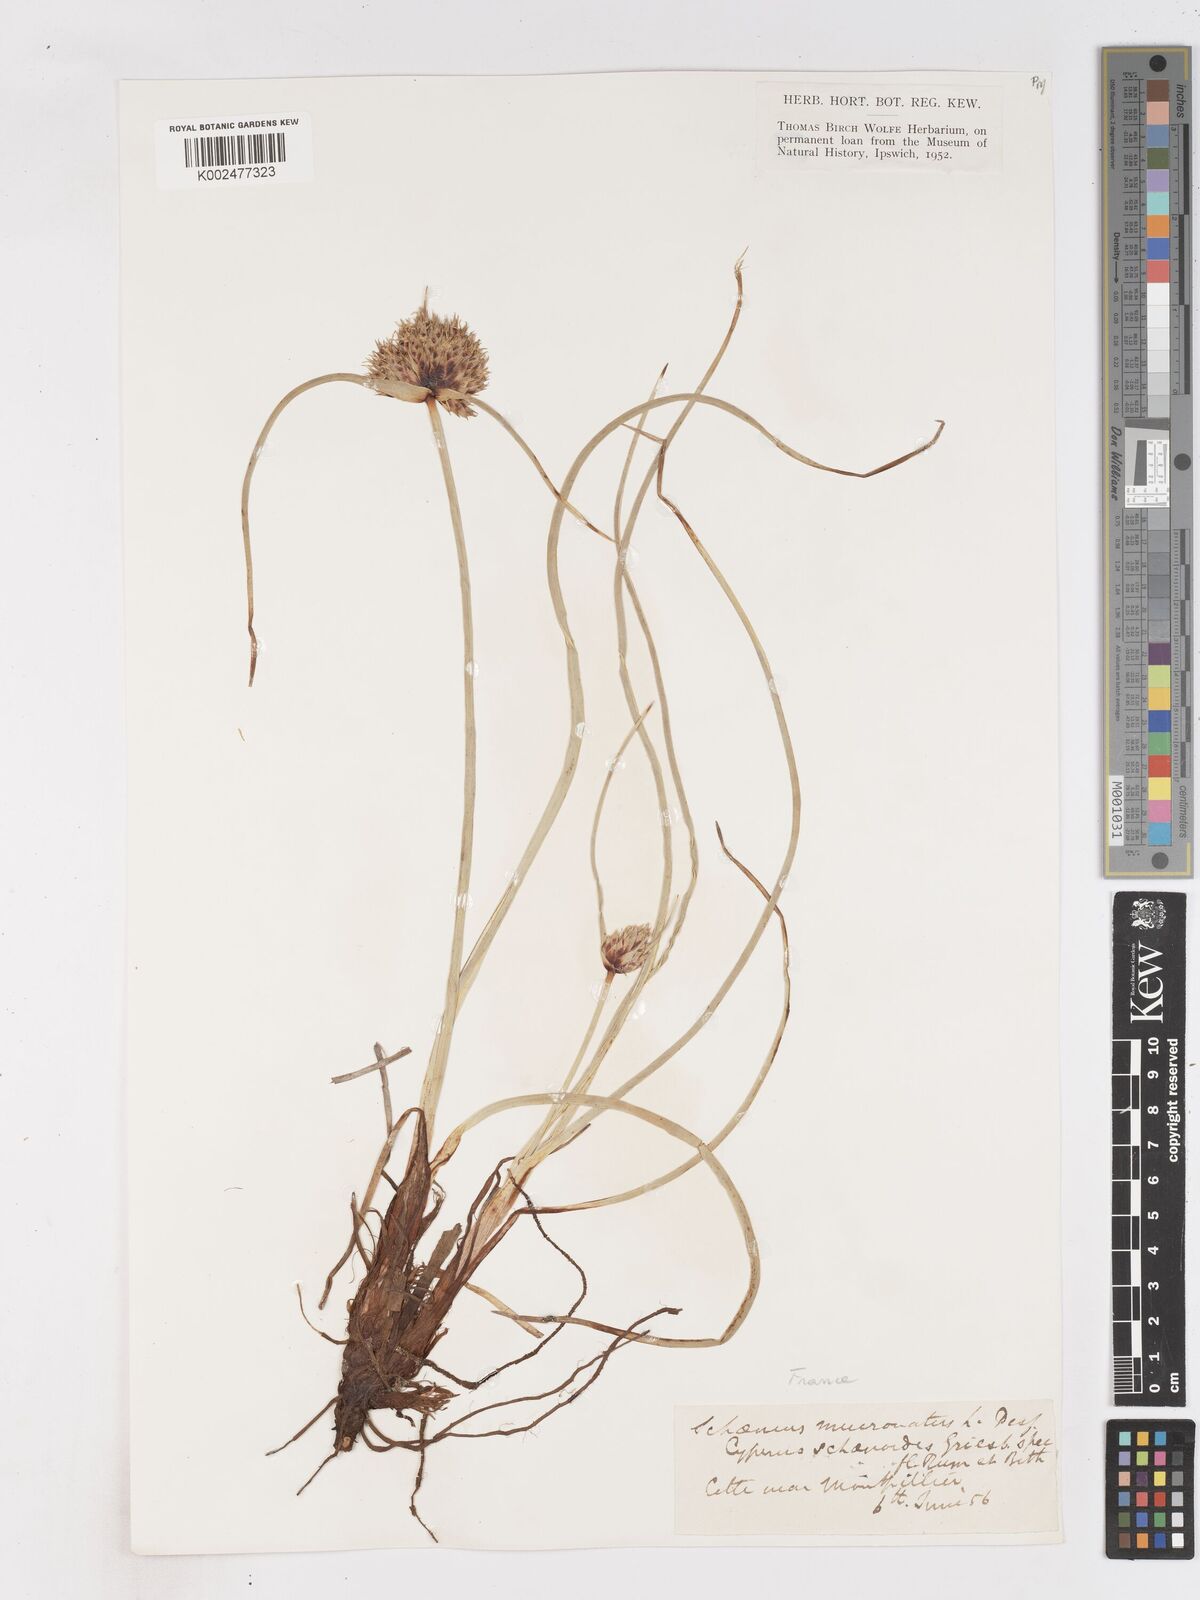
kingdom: Plantae
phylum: Tracheophyta
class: Liliopsida
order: Poales
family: Cyperaceae
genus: Cyperus
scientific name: Cyperus capitatus
